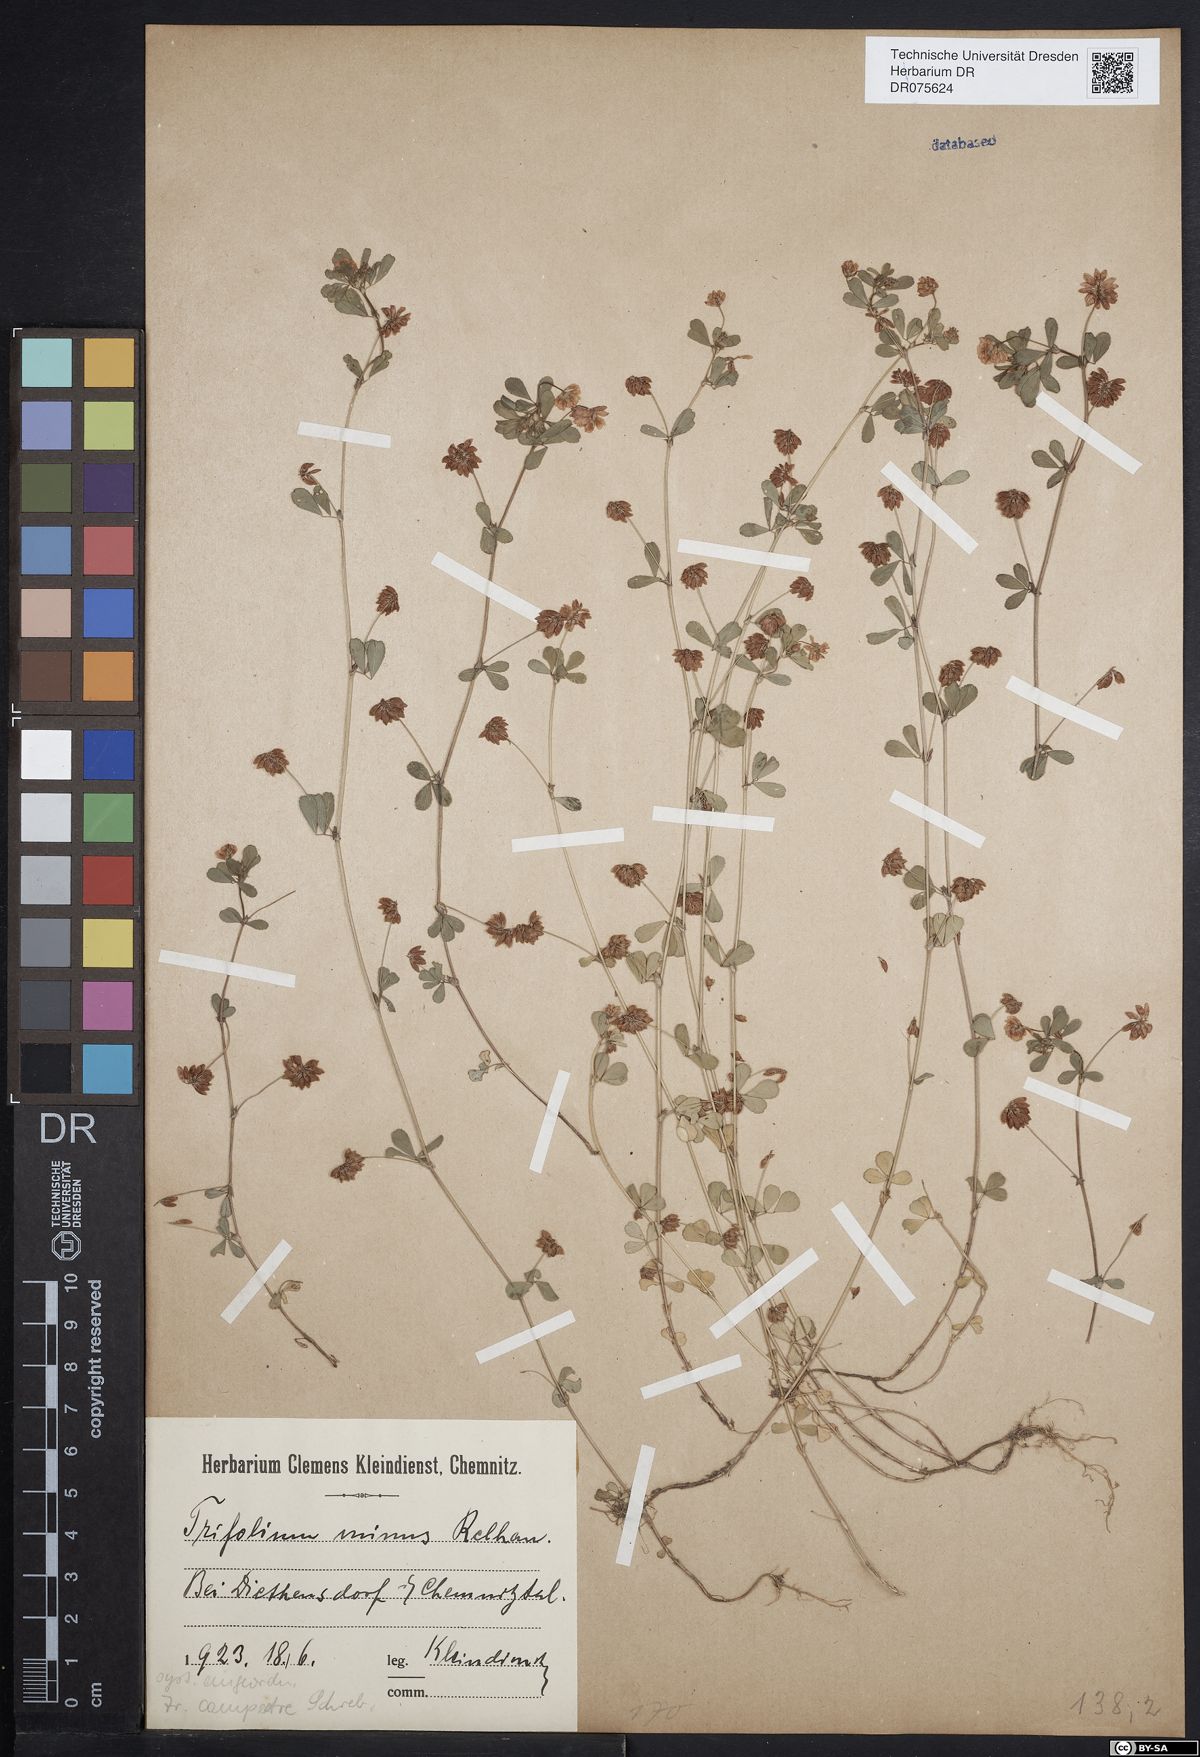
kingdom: Plantae
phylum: Tracheophyta
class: Magnoliopsida
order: Fabales
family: Fabaceae
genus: Trifolium
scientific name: Trifolium dubium
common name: Suckling clover
